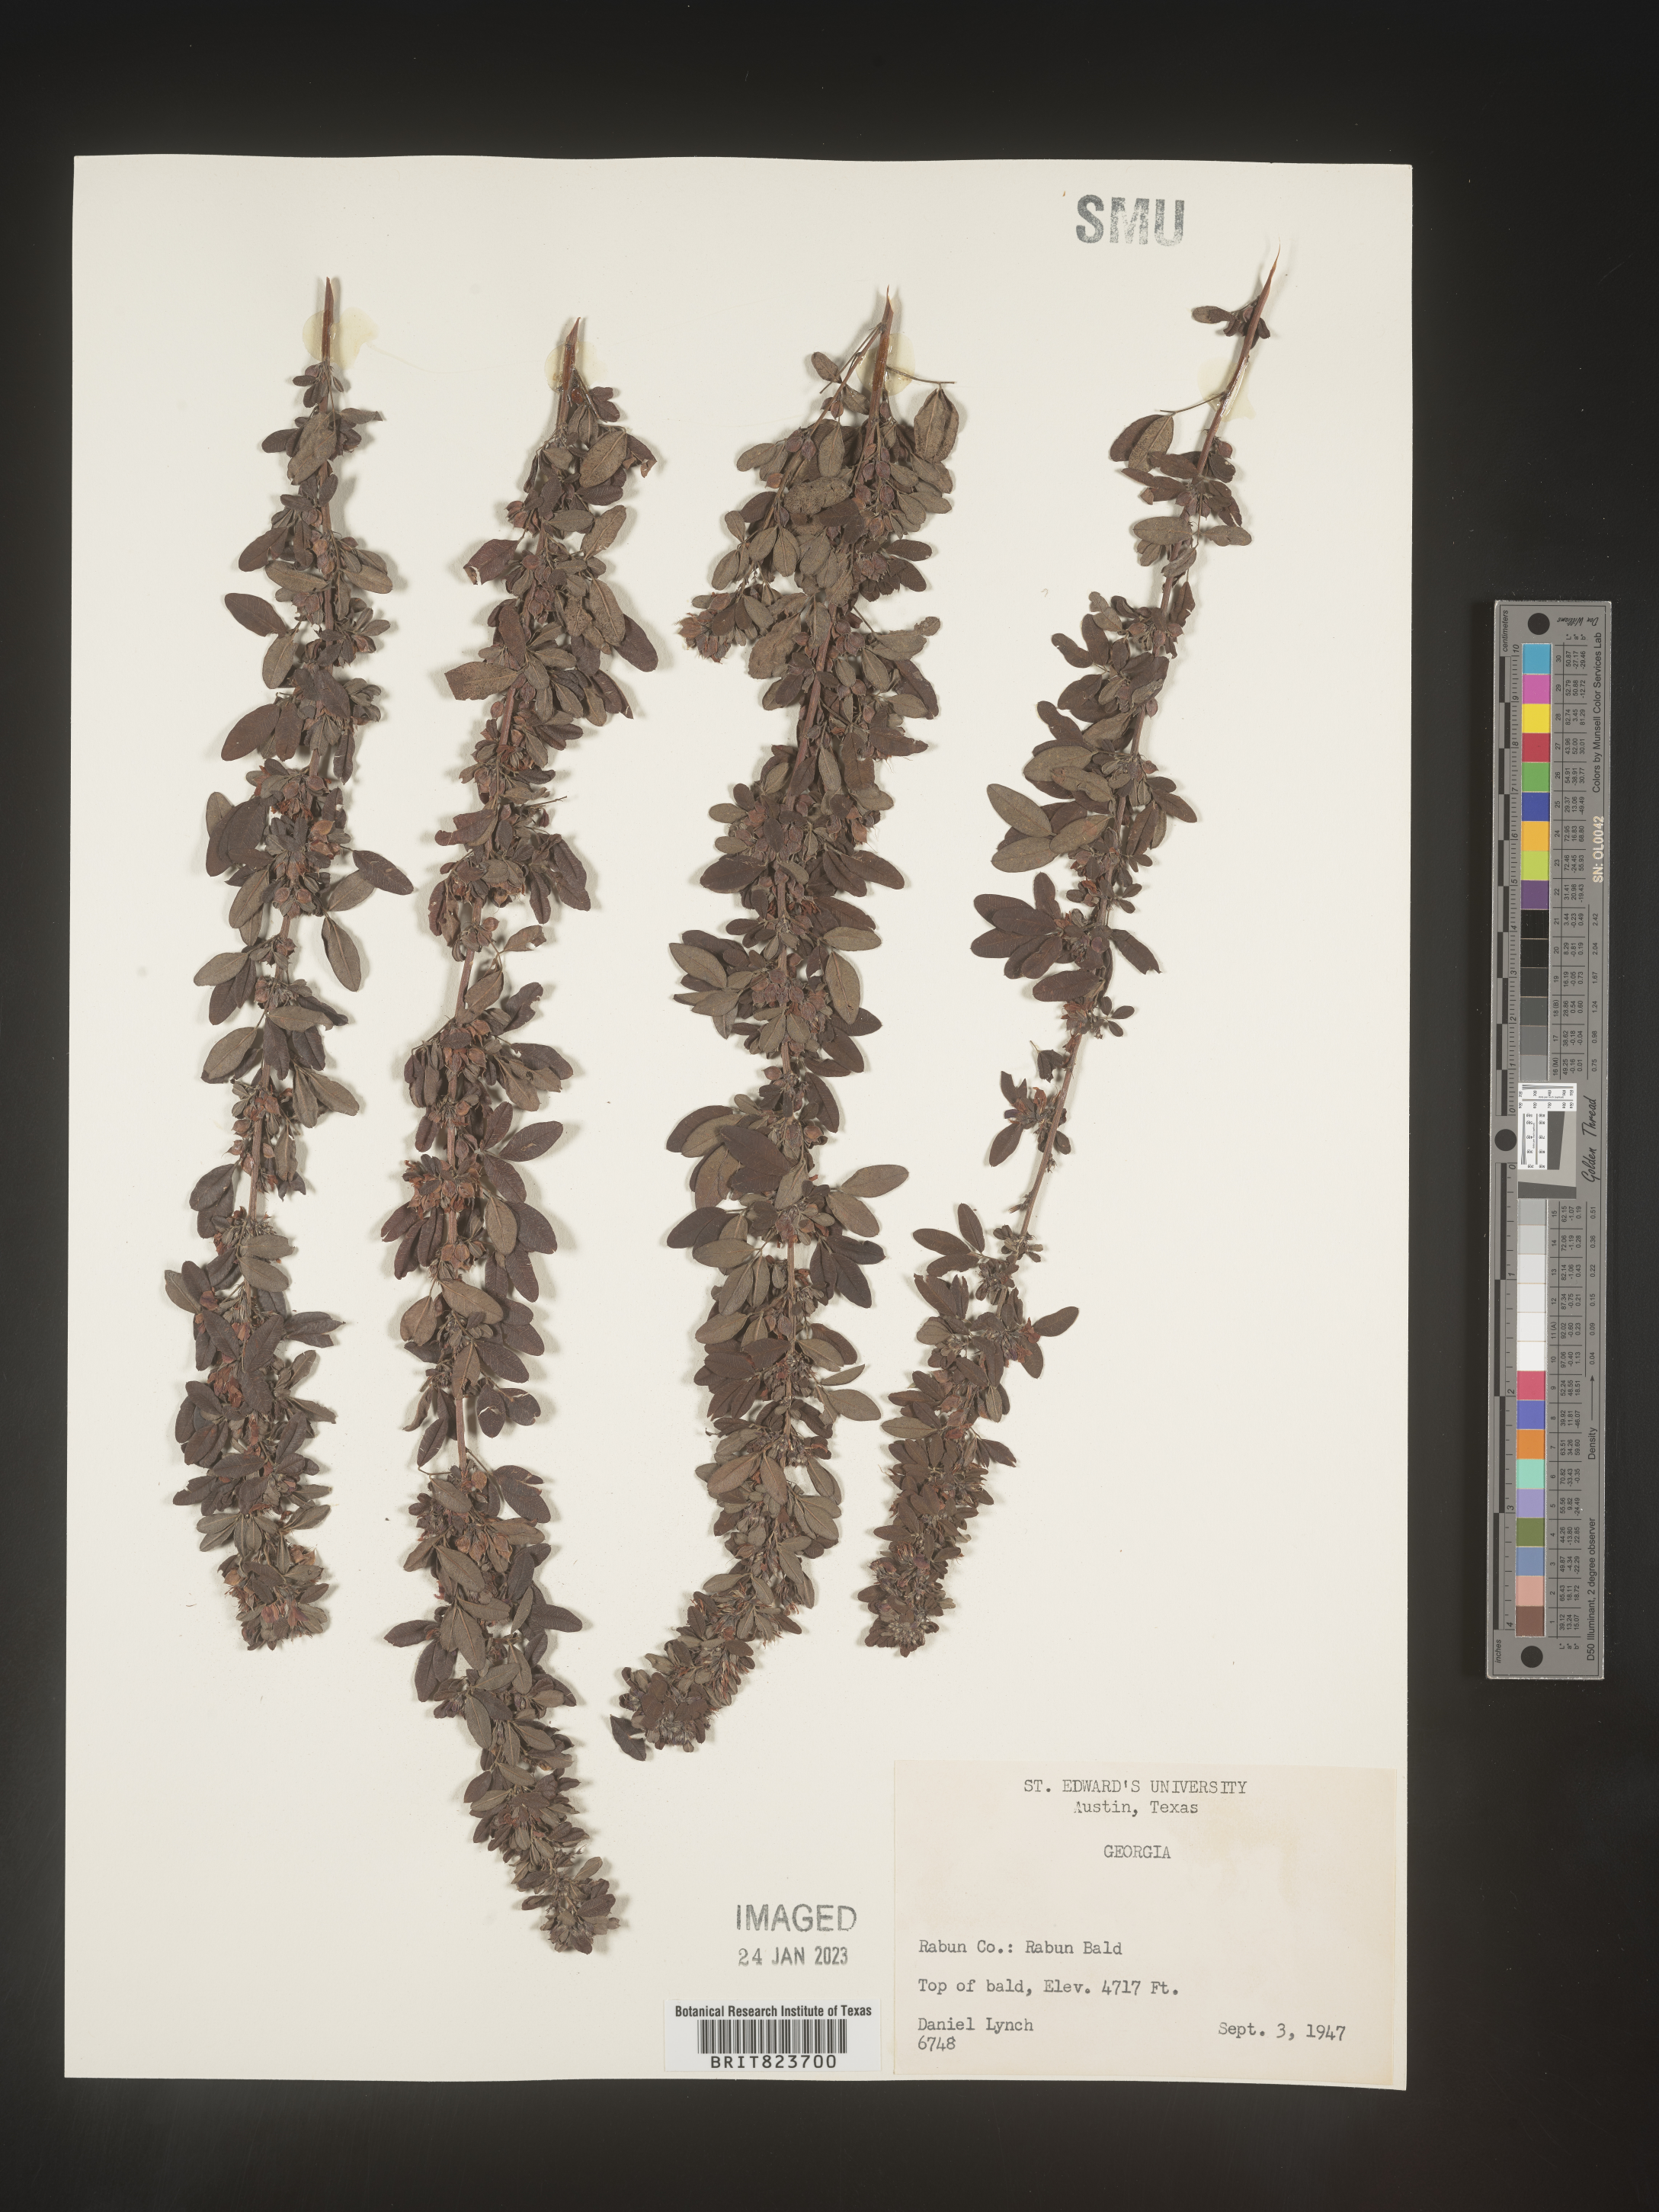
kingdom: Plantae
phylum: Tracheophyta
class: Magnoliopsida
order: Fabales
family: Fabaceae
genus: Lespedeza
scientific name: Lespedeza
